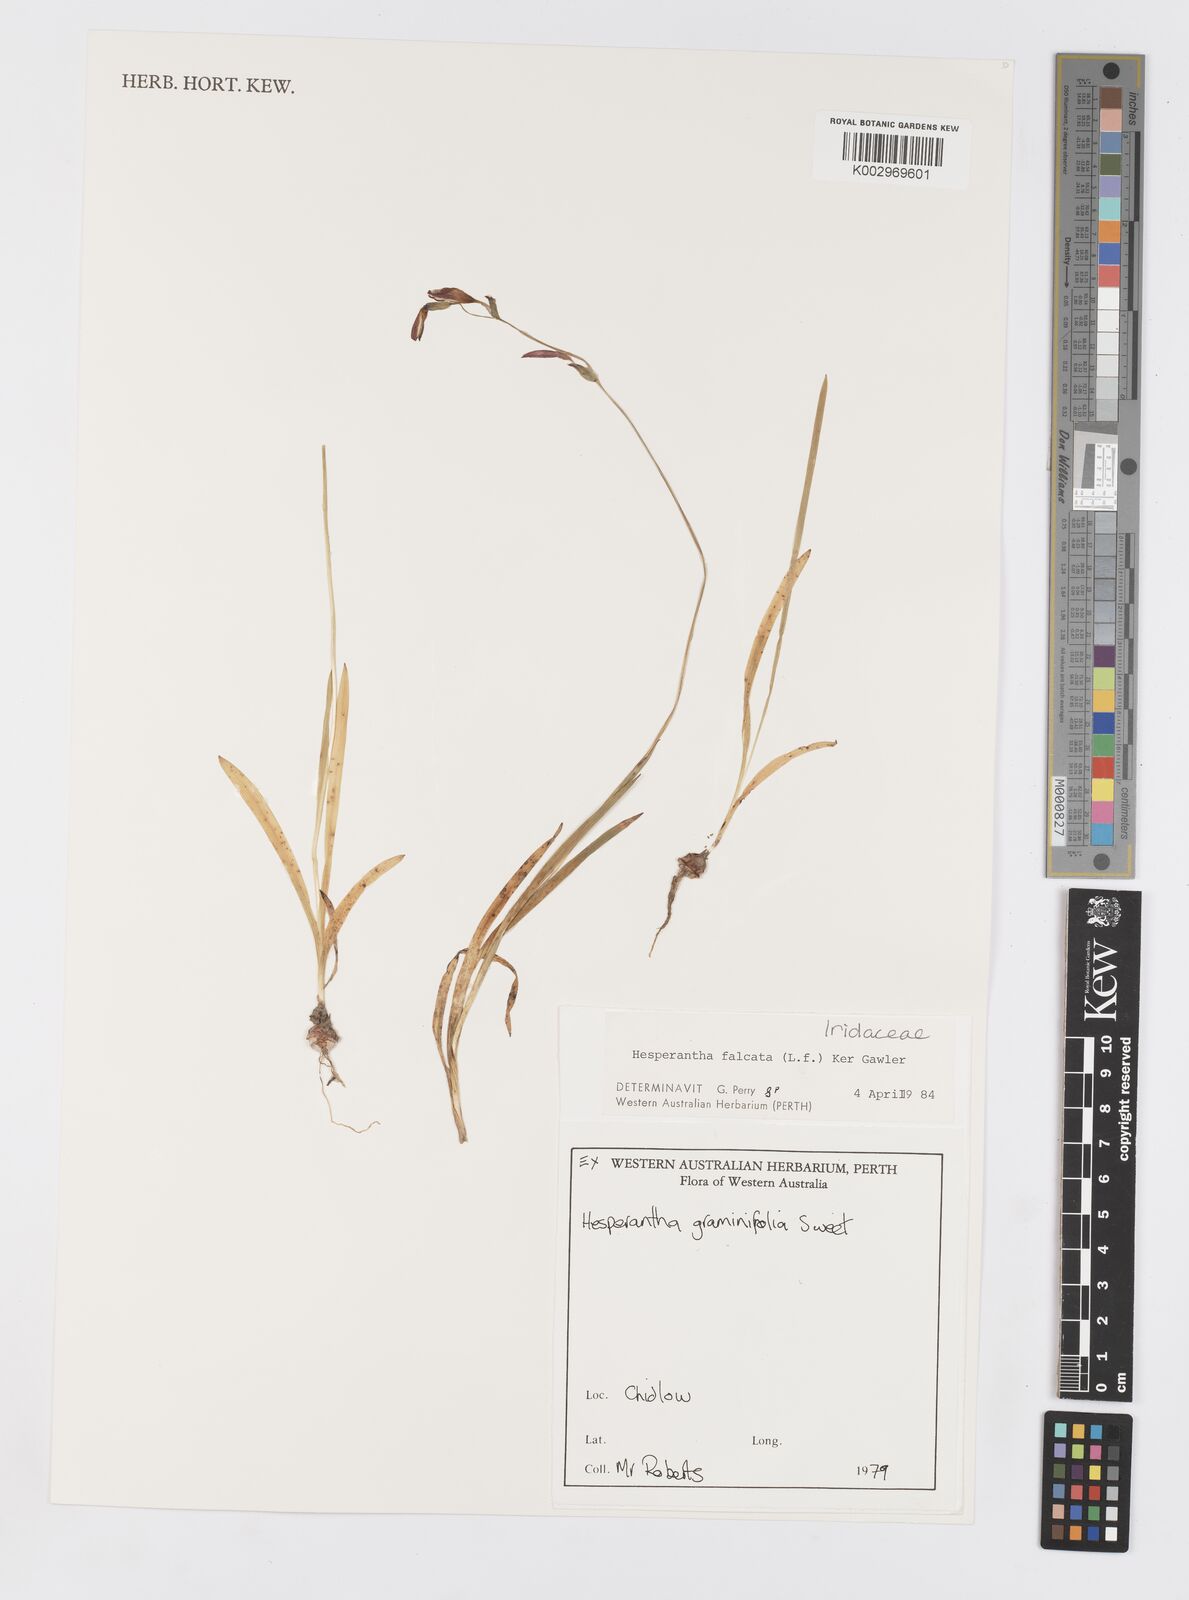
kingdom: Plantae
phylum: Tracheophyta
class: Liliopsida
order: Asparagales
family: Iridaceae
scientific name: Iridaceae
